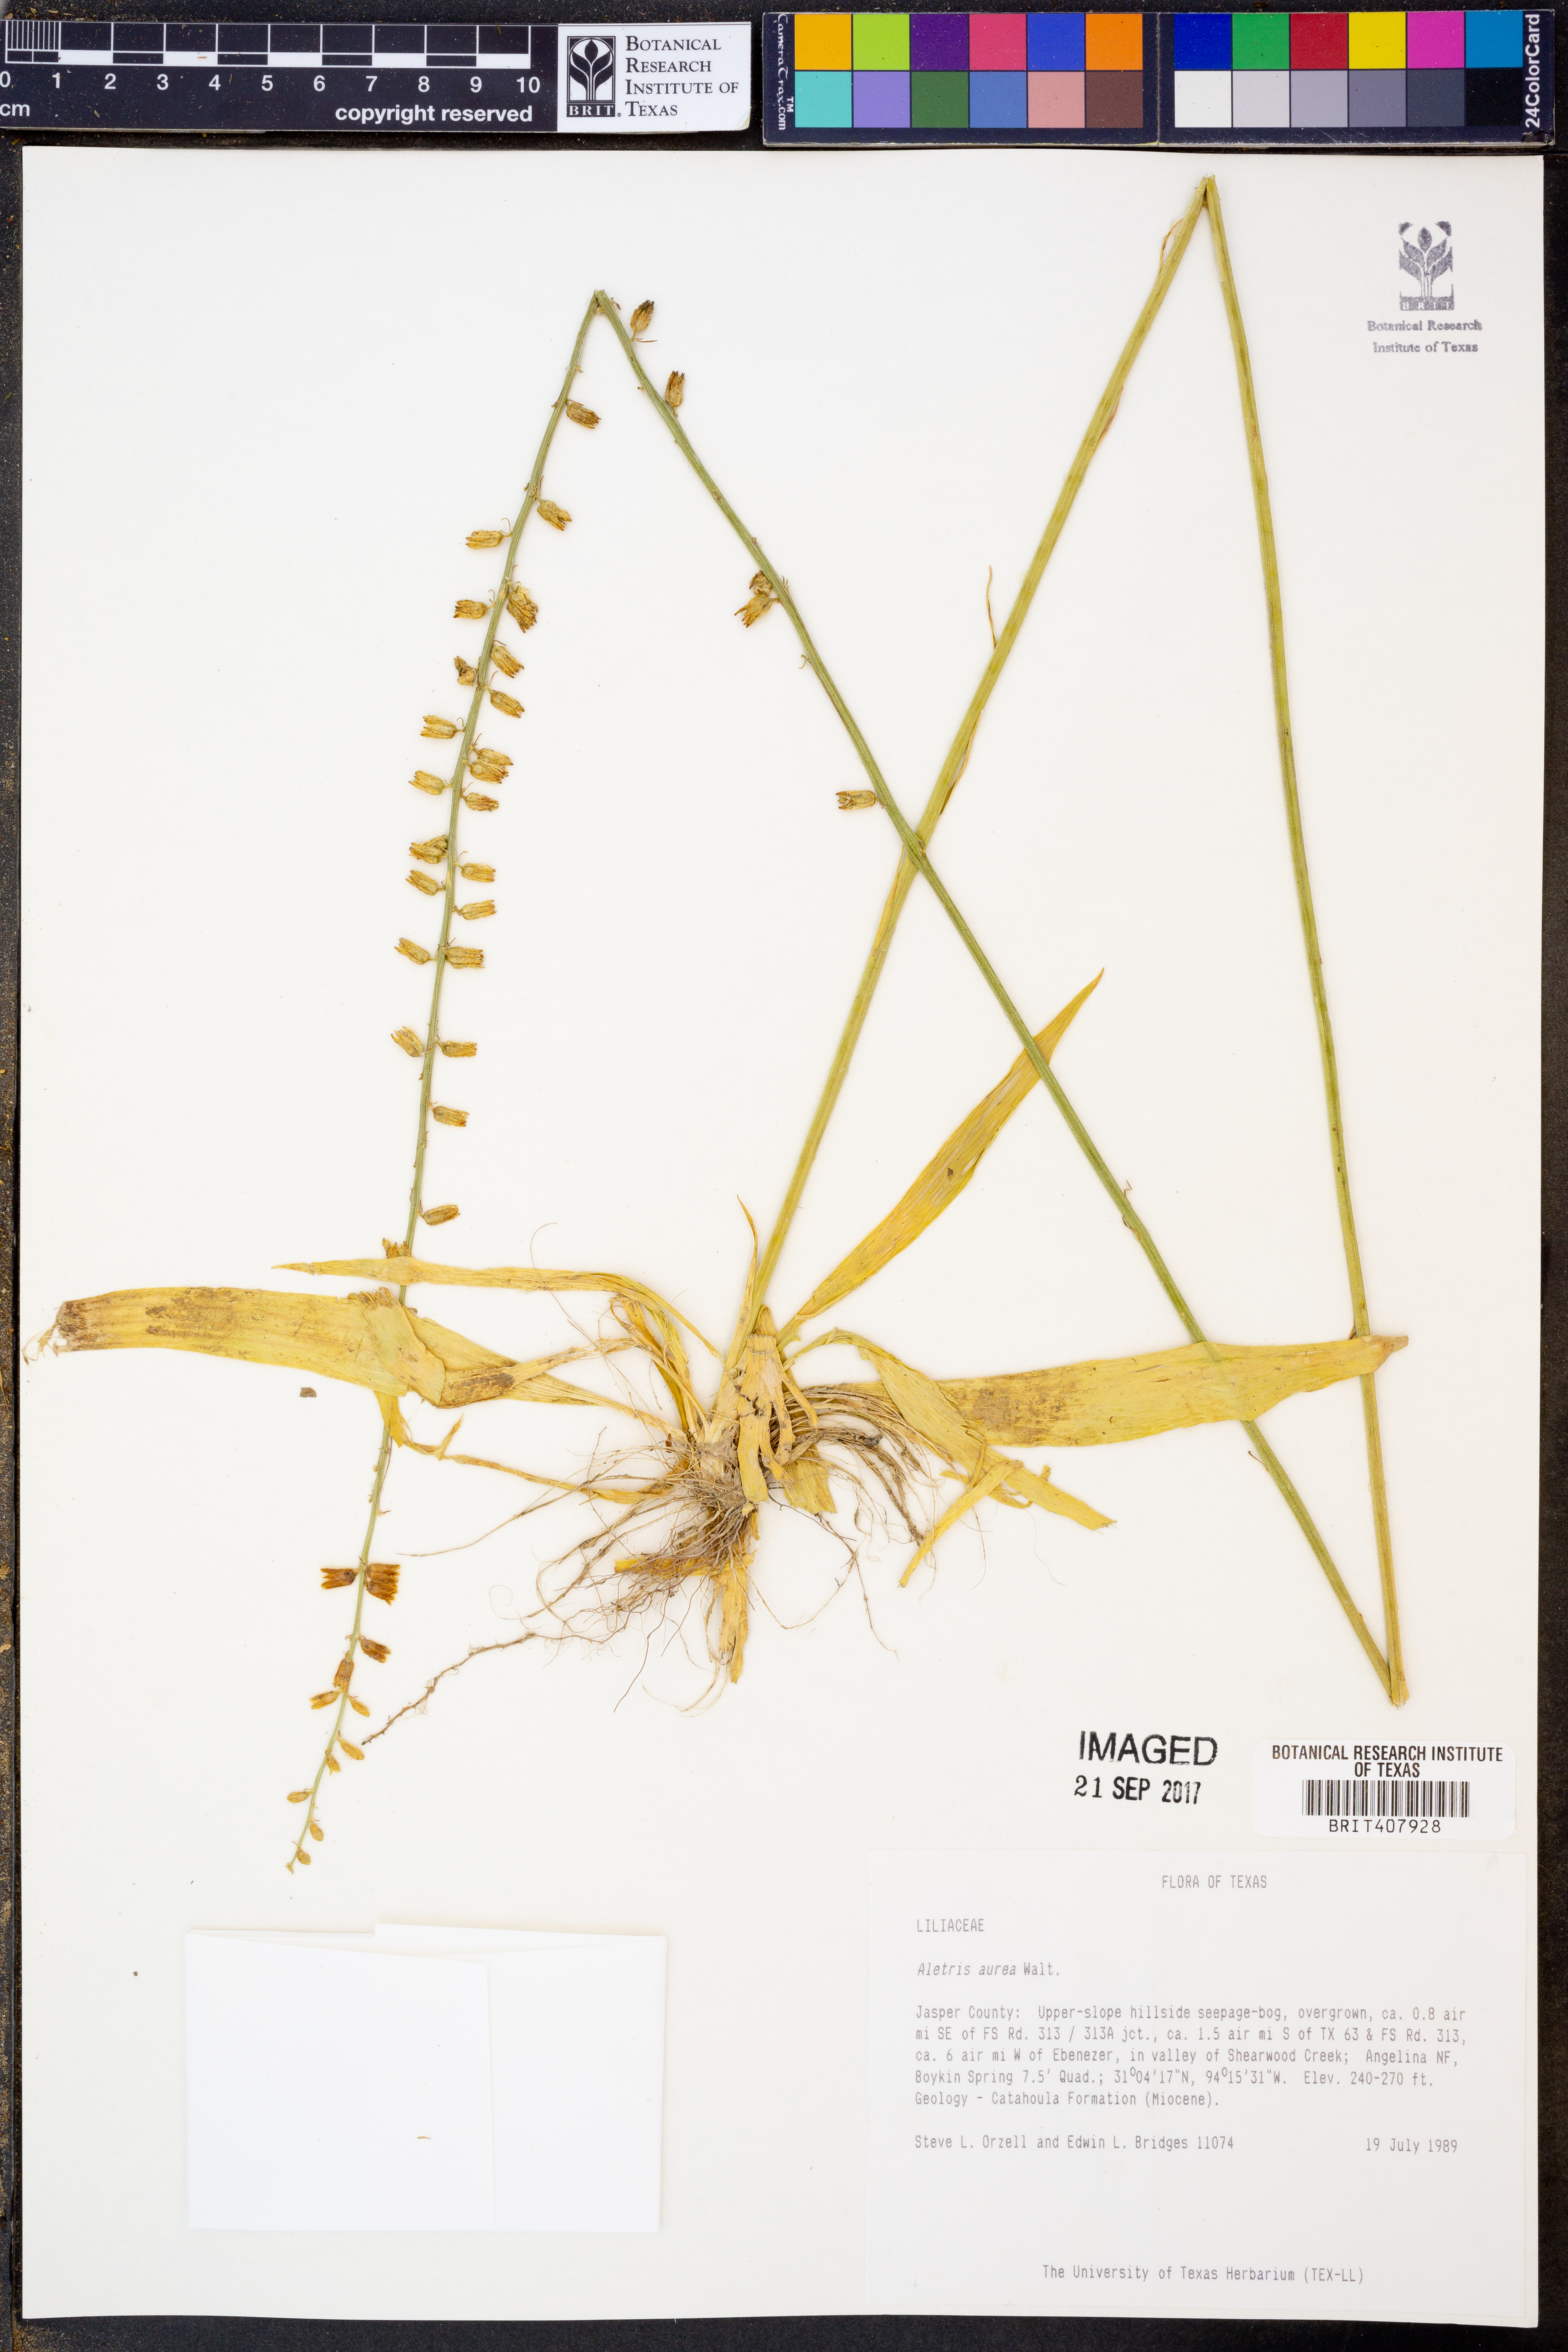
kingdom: Plantae
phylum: Tracheophyta
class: Liliopsida
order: Dioscoreales
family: Nartheciaceae
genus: Aletris
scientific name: Aletris aurea
